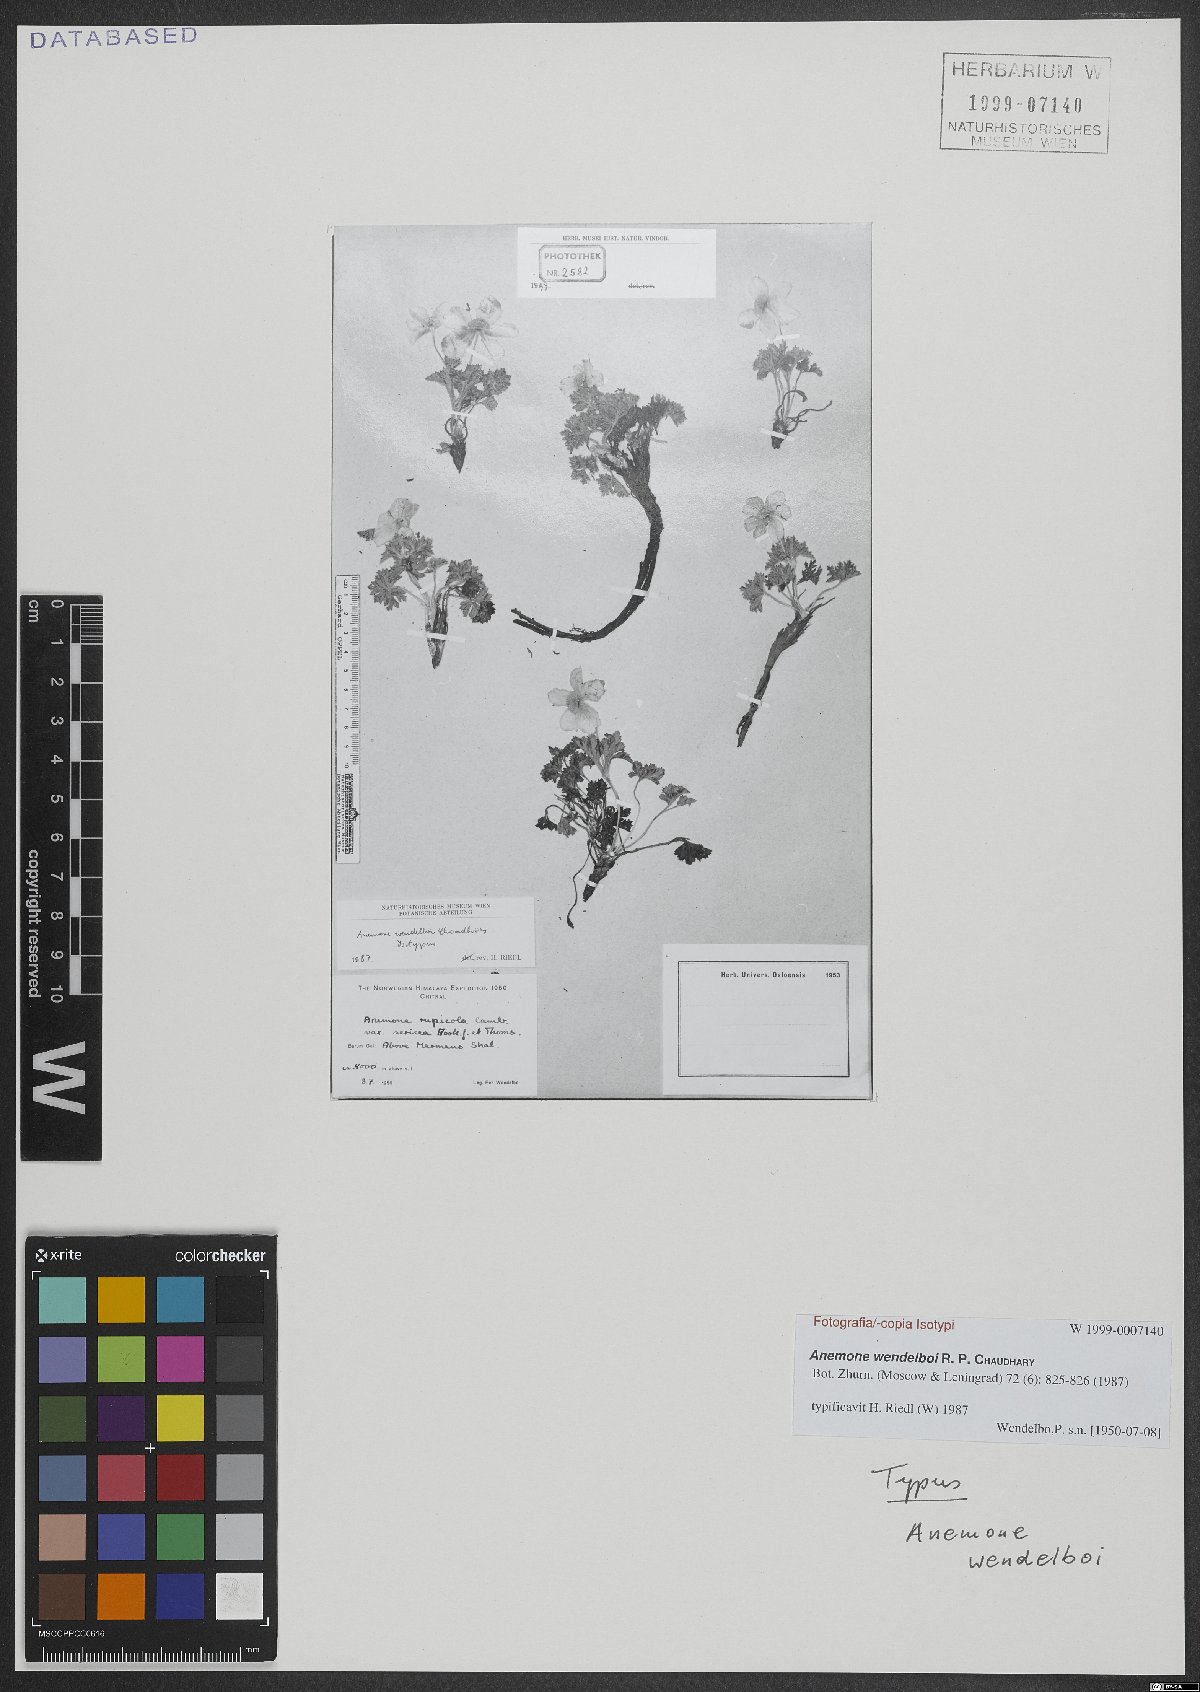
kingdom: Plantae
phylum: Tracheophyta
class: Magnoliopsida
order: Ranunculales
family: Ranunculaceae
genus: Anemone
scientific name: Anemone afghanica
